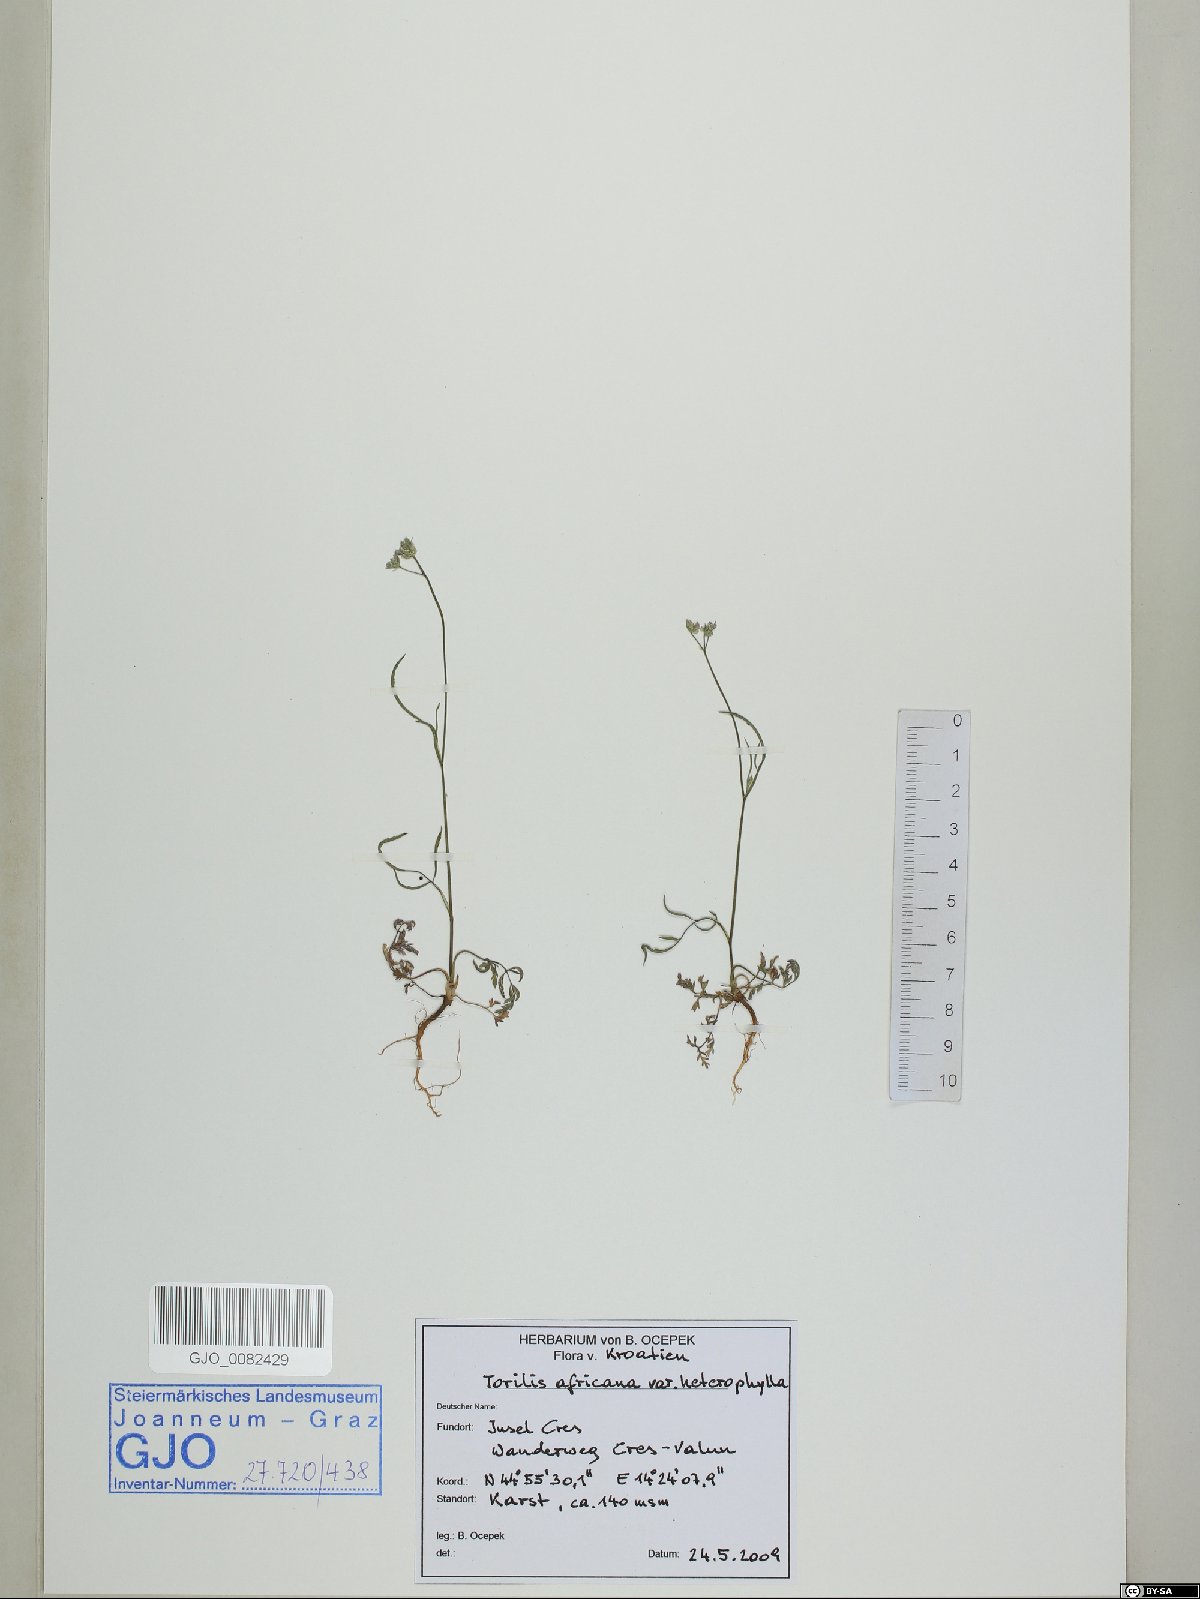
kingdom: Plantae
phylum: Tracheophyta
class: Magnoliopsida
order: Apiales
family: Apiaceae
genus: Torilis
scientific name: Torilis africana
